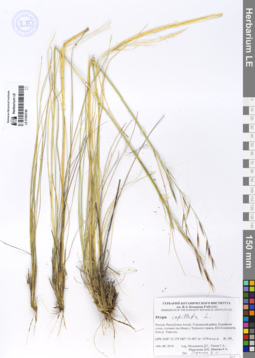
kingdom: Plantae
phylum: Tracheophyta
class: Liliopsida
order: Poales
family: Poaceae
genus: Stipa
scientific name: Stipa capillata
